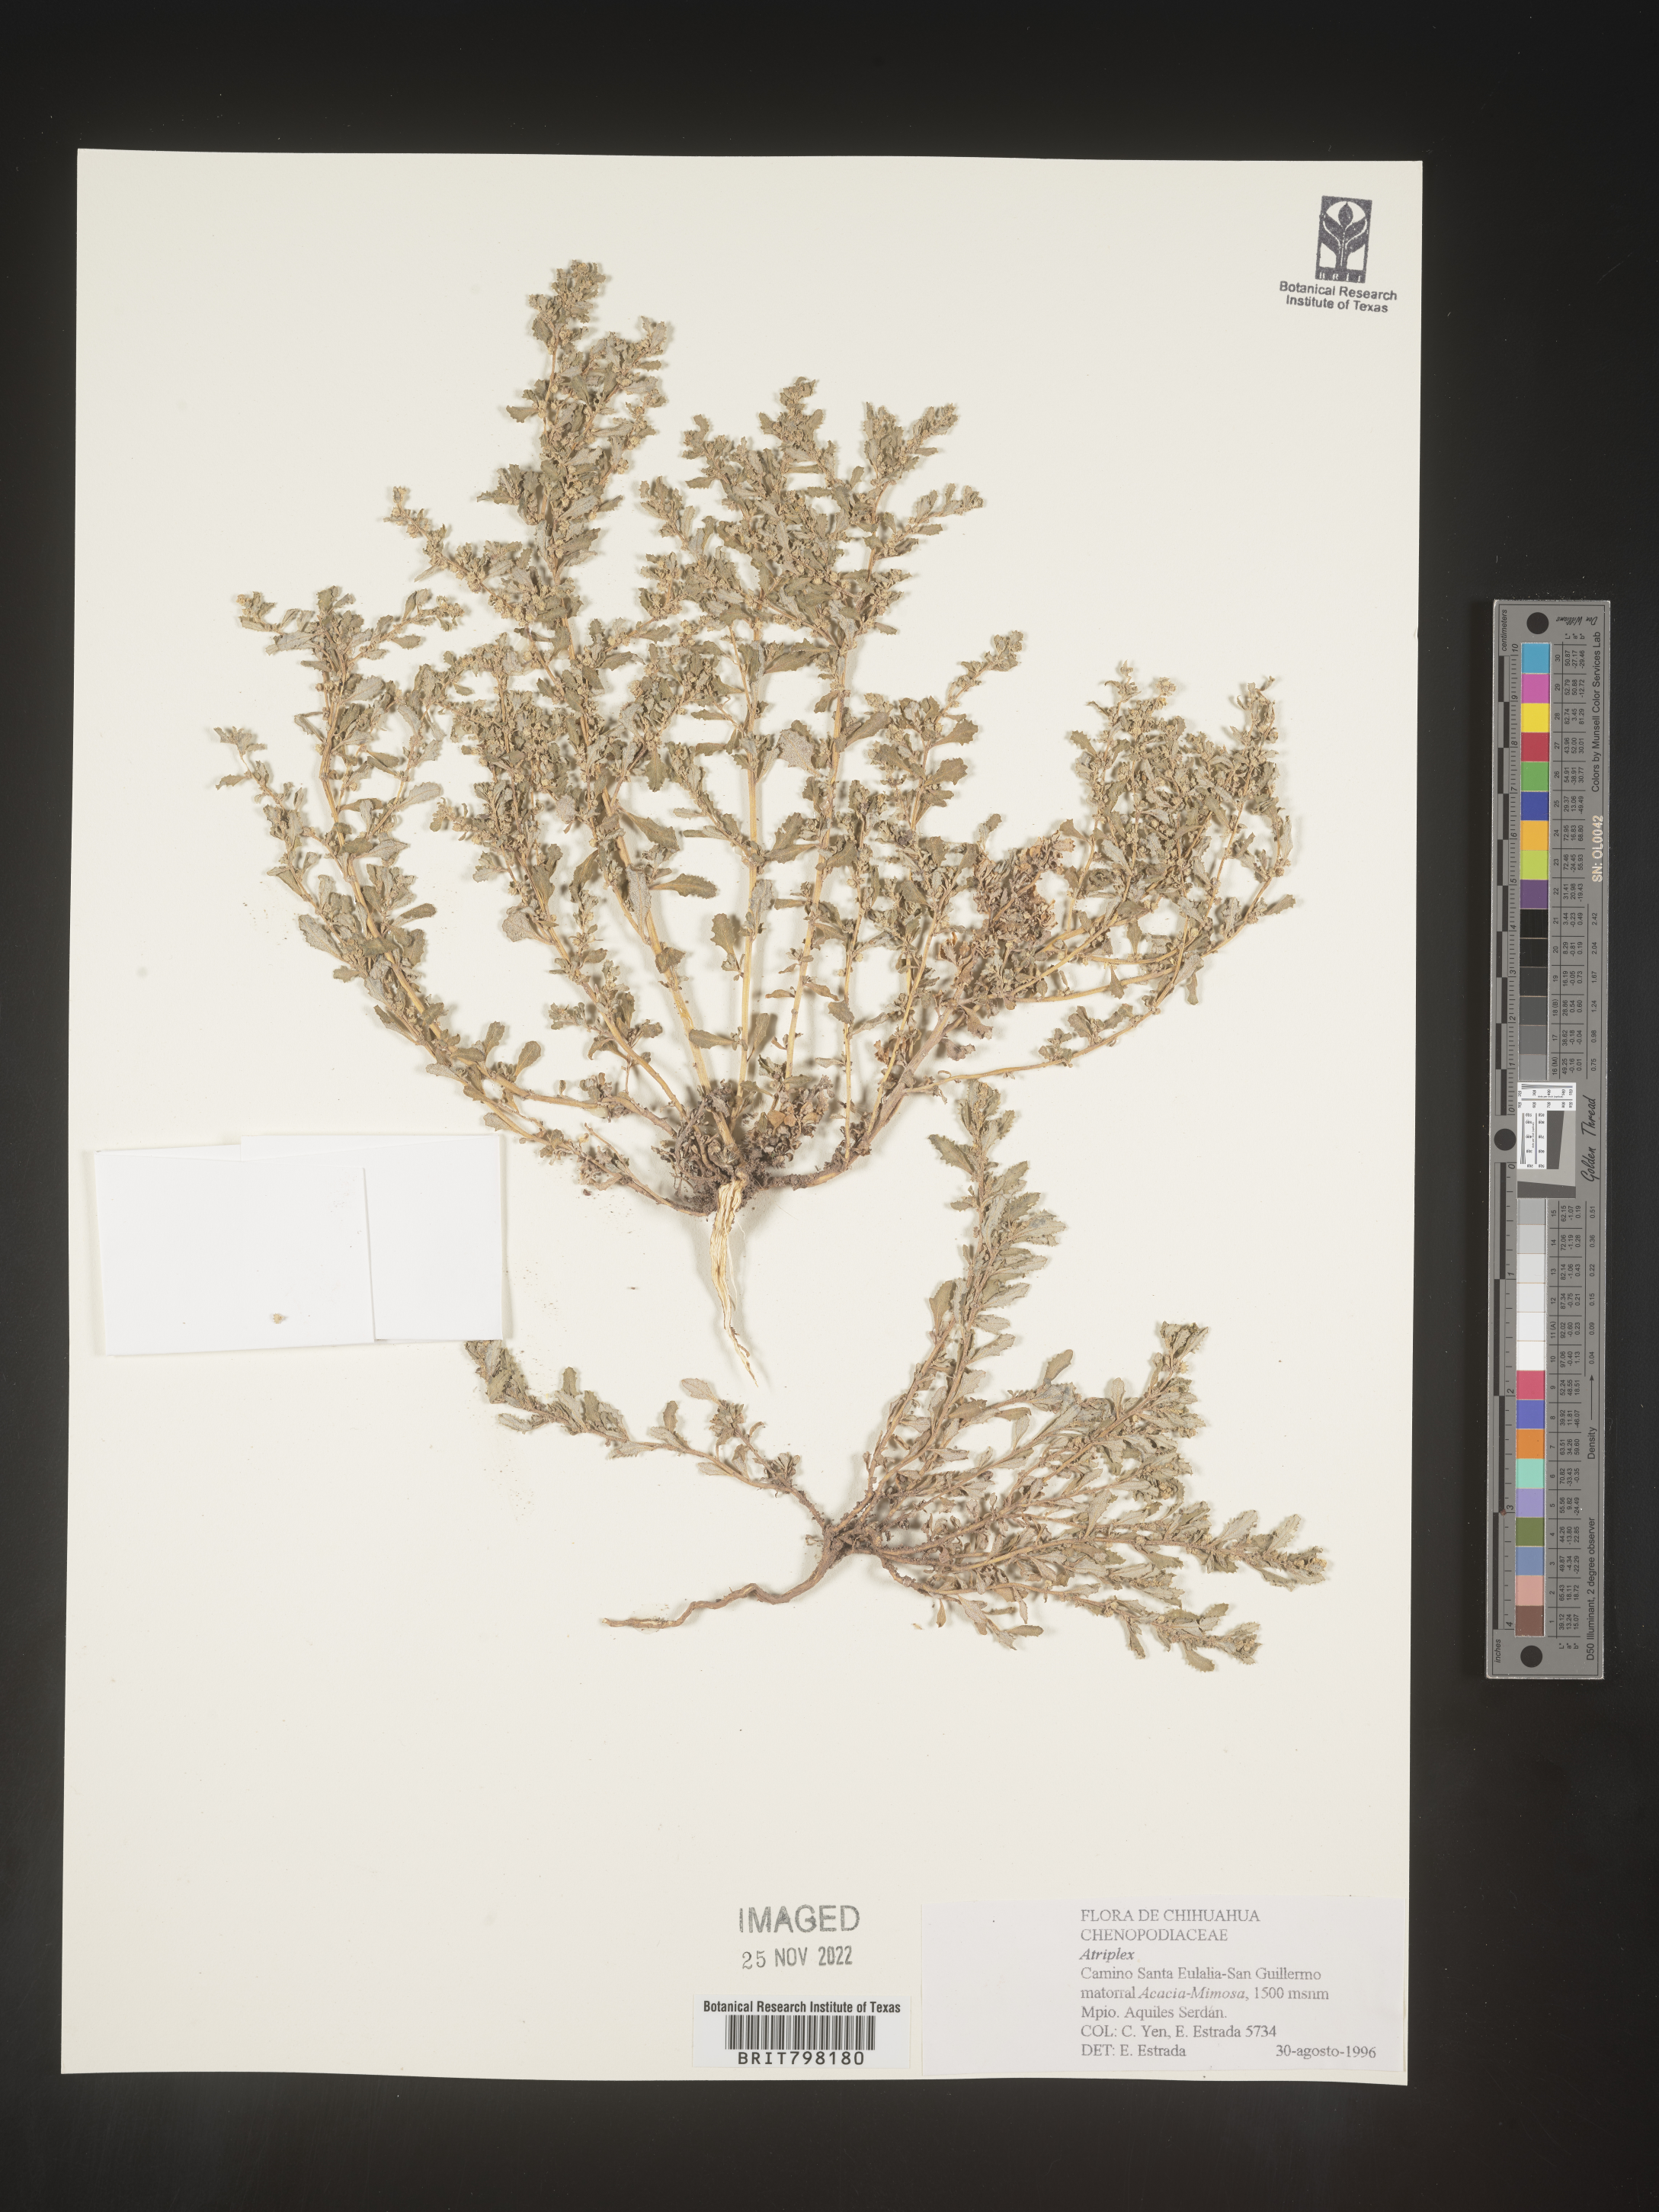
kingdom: Plantae
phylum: Tracheophyta
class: Magnoliopsida
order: Caryophyllales
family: Amaranthaceae
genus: Atriplex
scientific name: Atriplex
